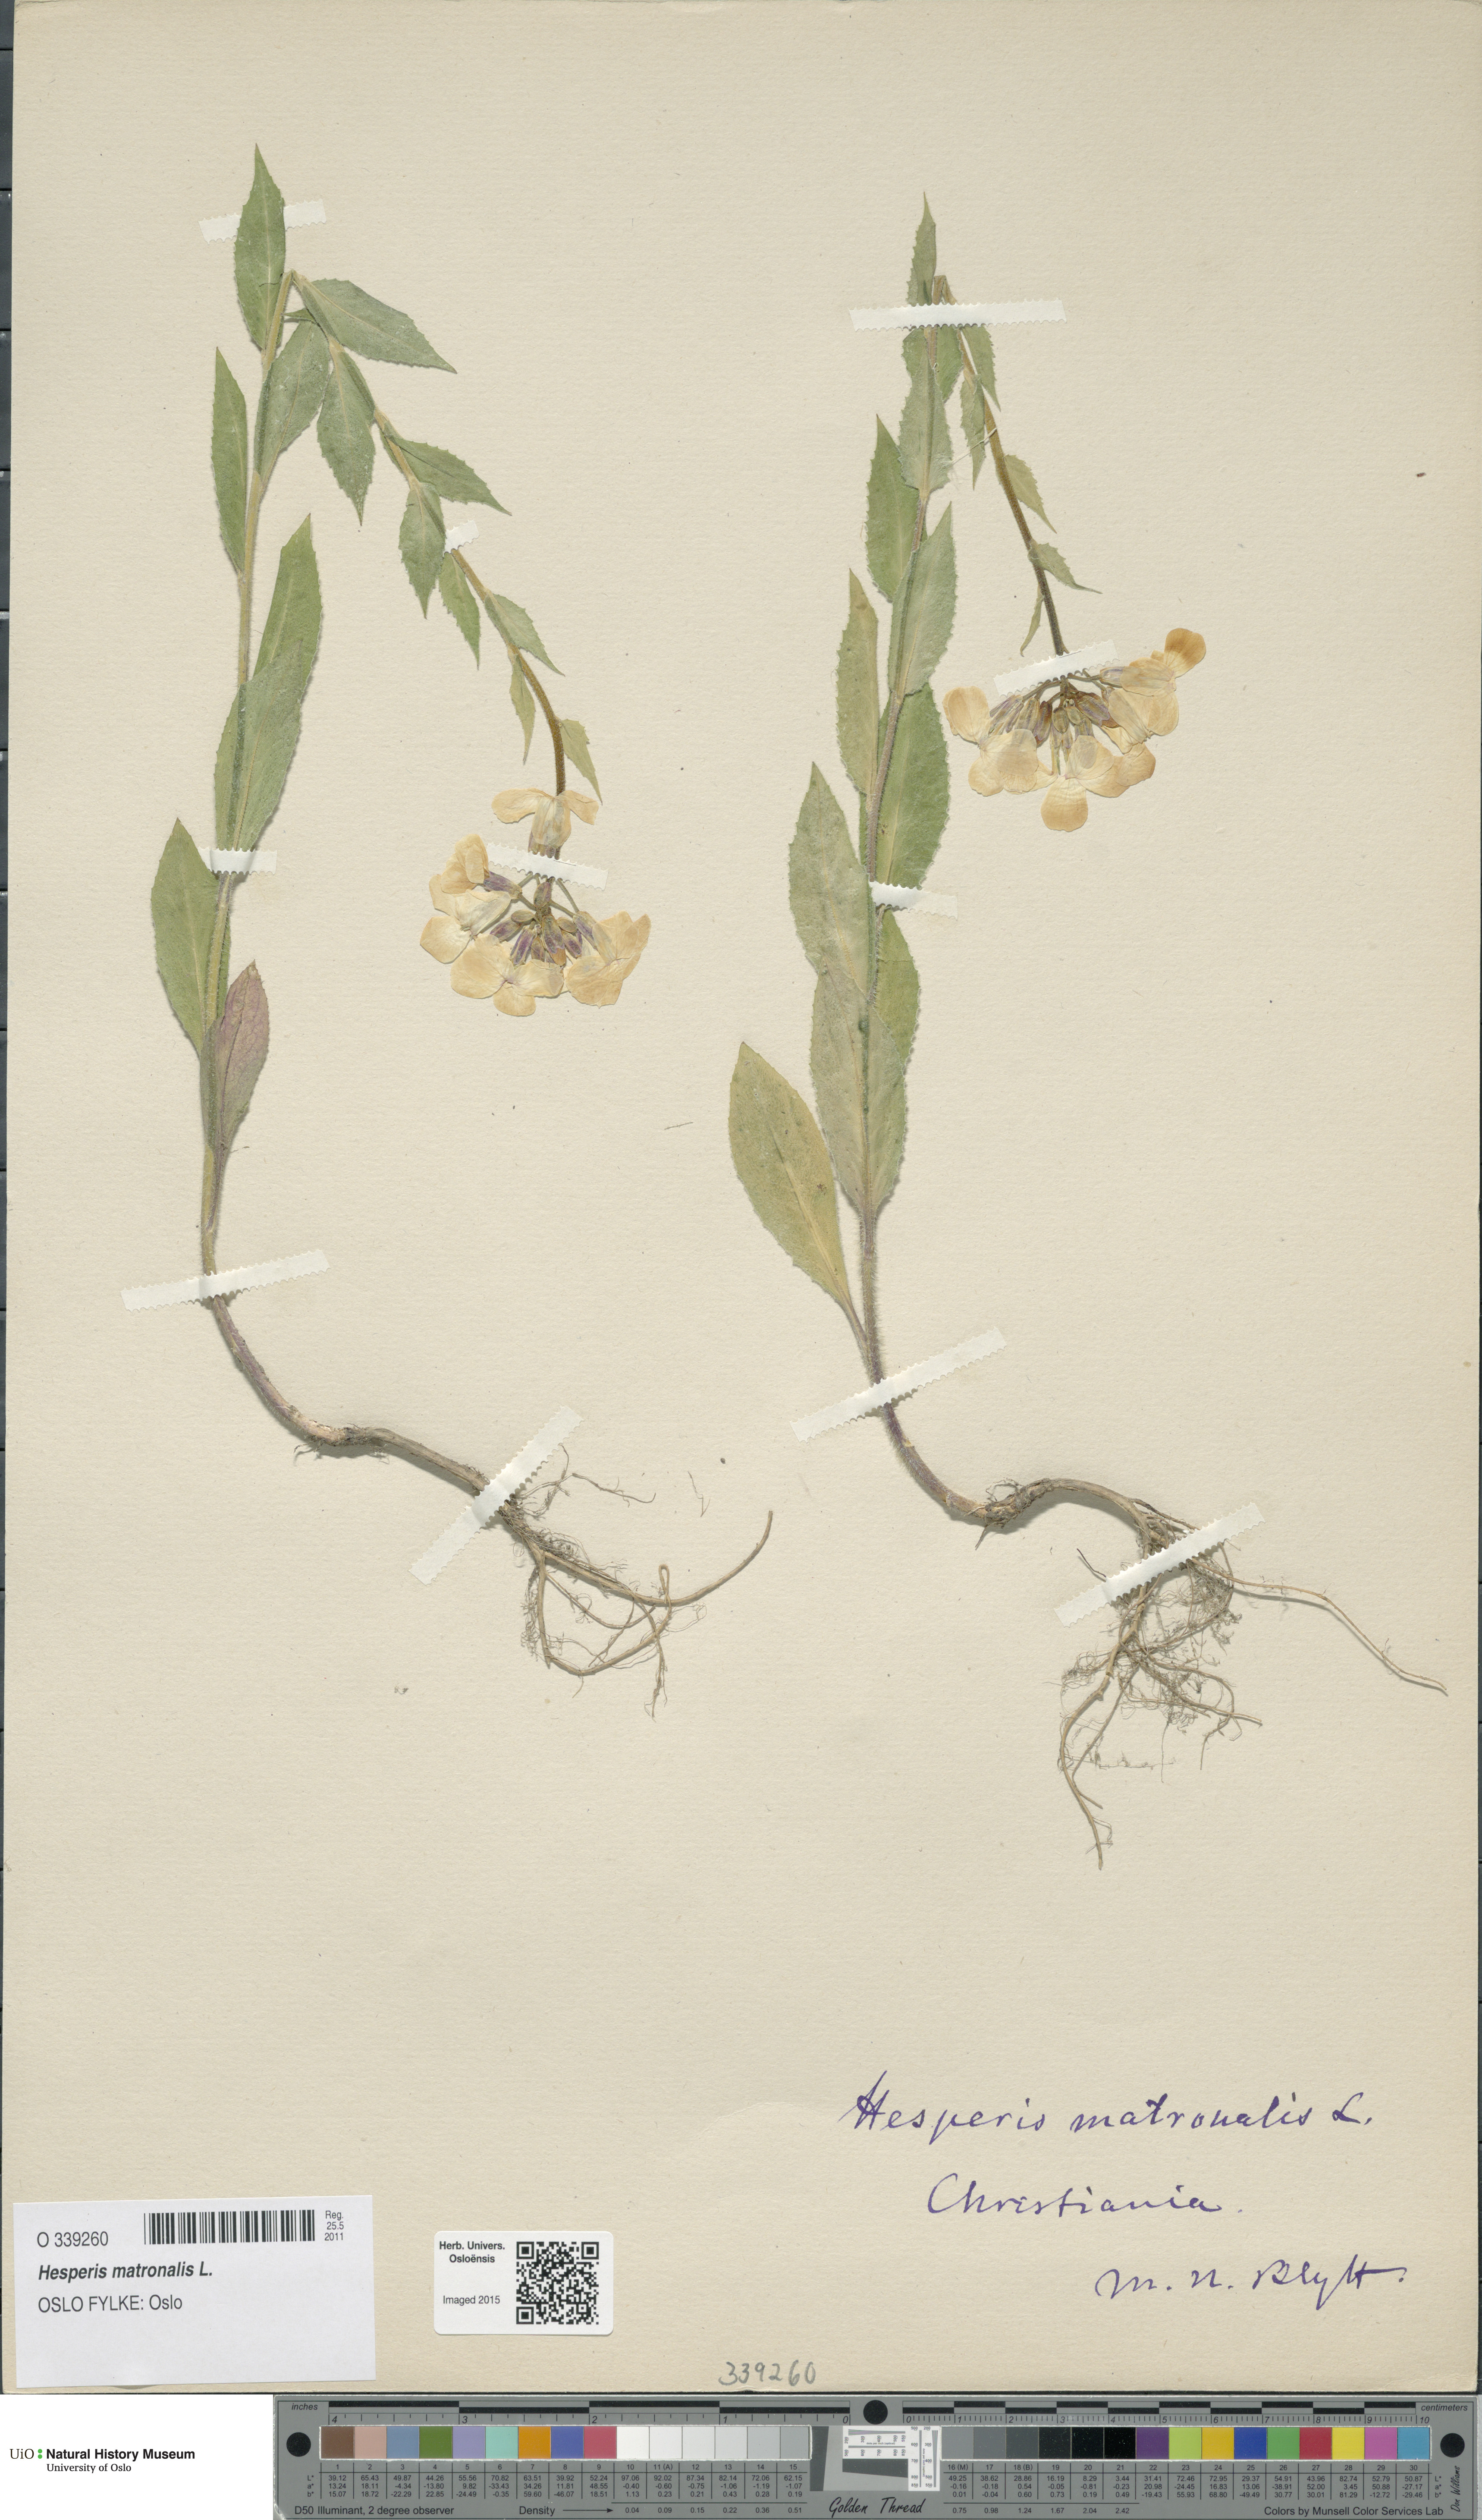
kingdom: Plantae
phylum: Tracheophyta
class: Magnoliopsida
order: Brassicales
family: Brassicaceae
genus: Hesperis
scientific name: Hesperis matronalis
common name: Dame's-violet
